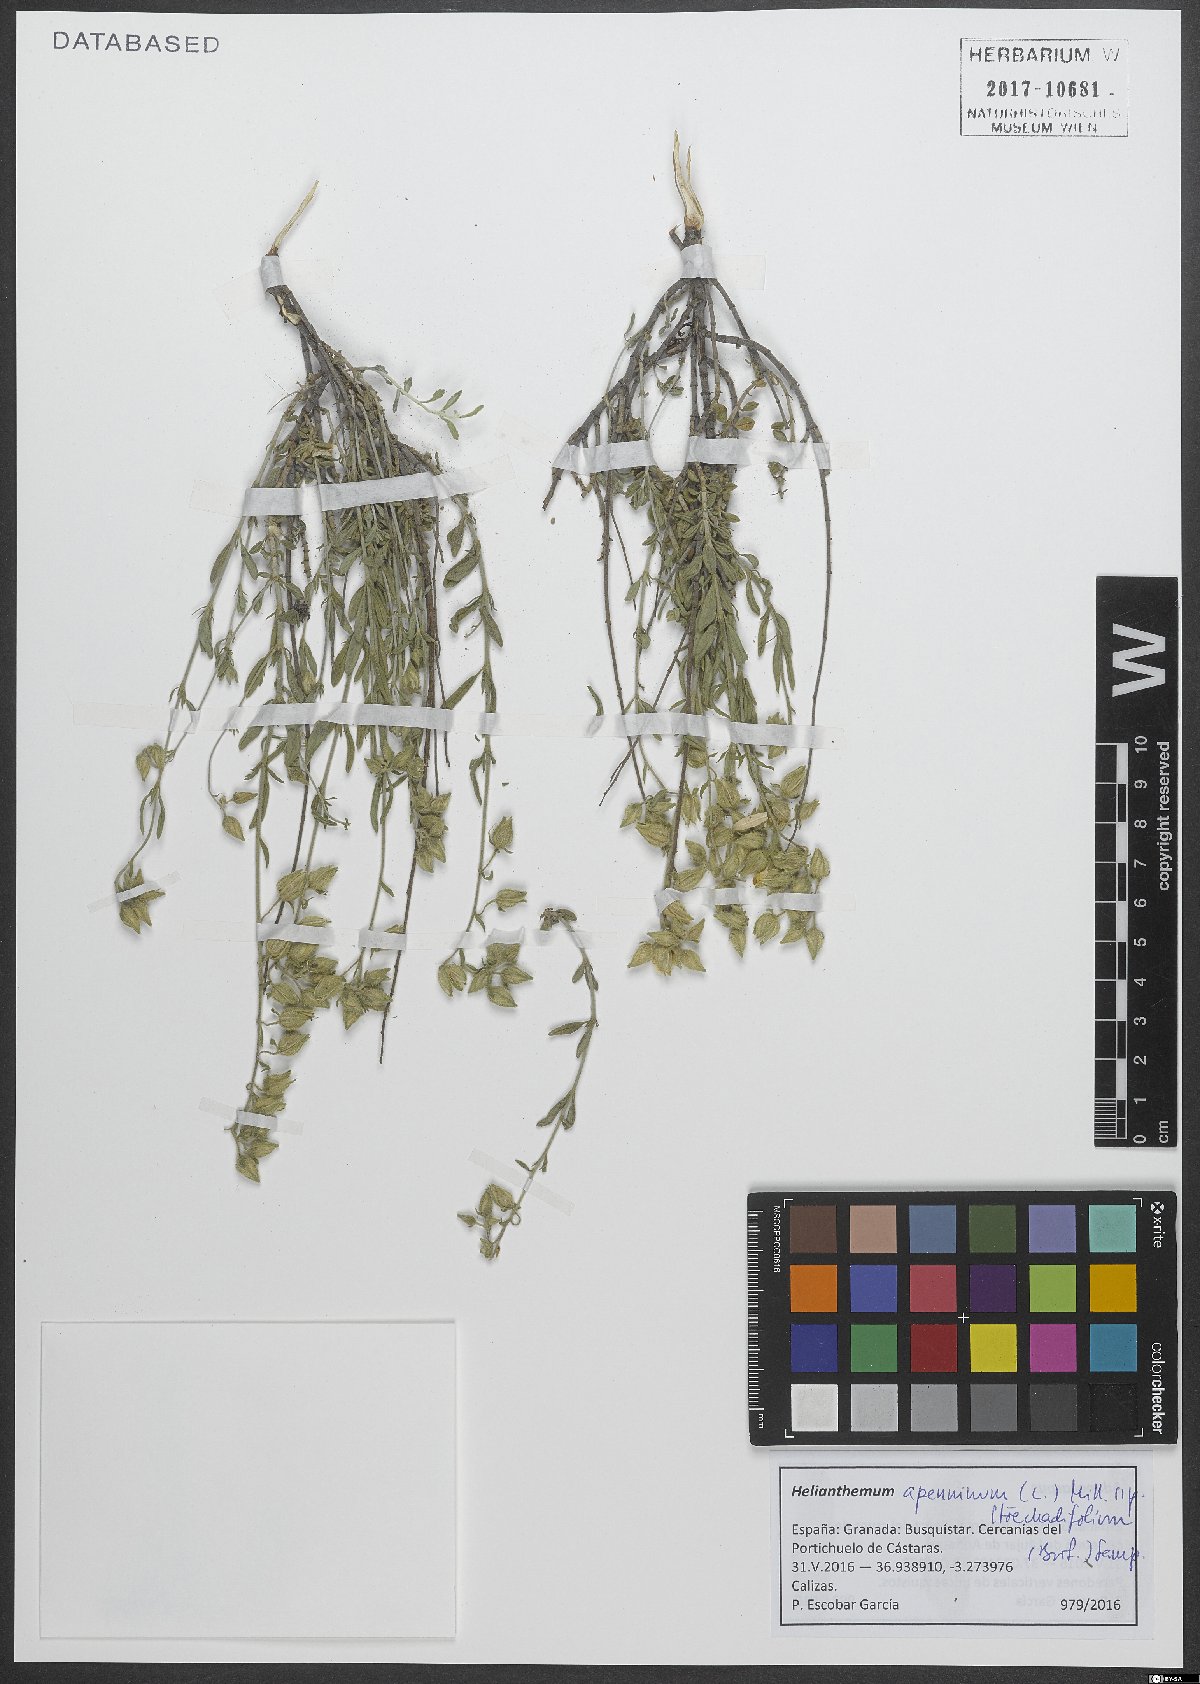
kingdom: Plantae
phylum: Tracheophyta
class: Magnoliopsida
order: Malvales
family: Cistaceae
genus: Helianthemum
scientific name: Helianthemum apenninum
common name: White rock-rose
